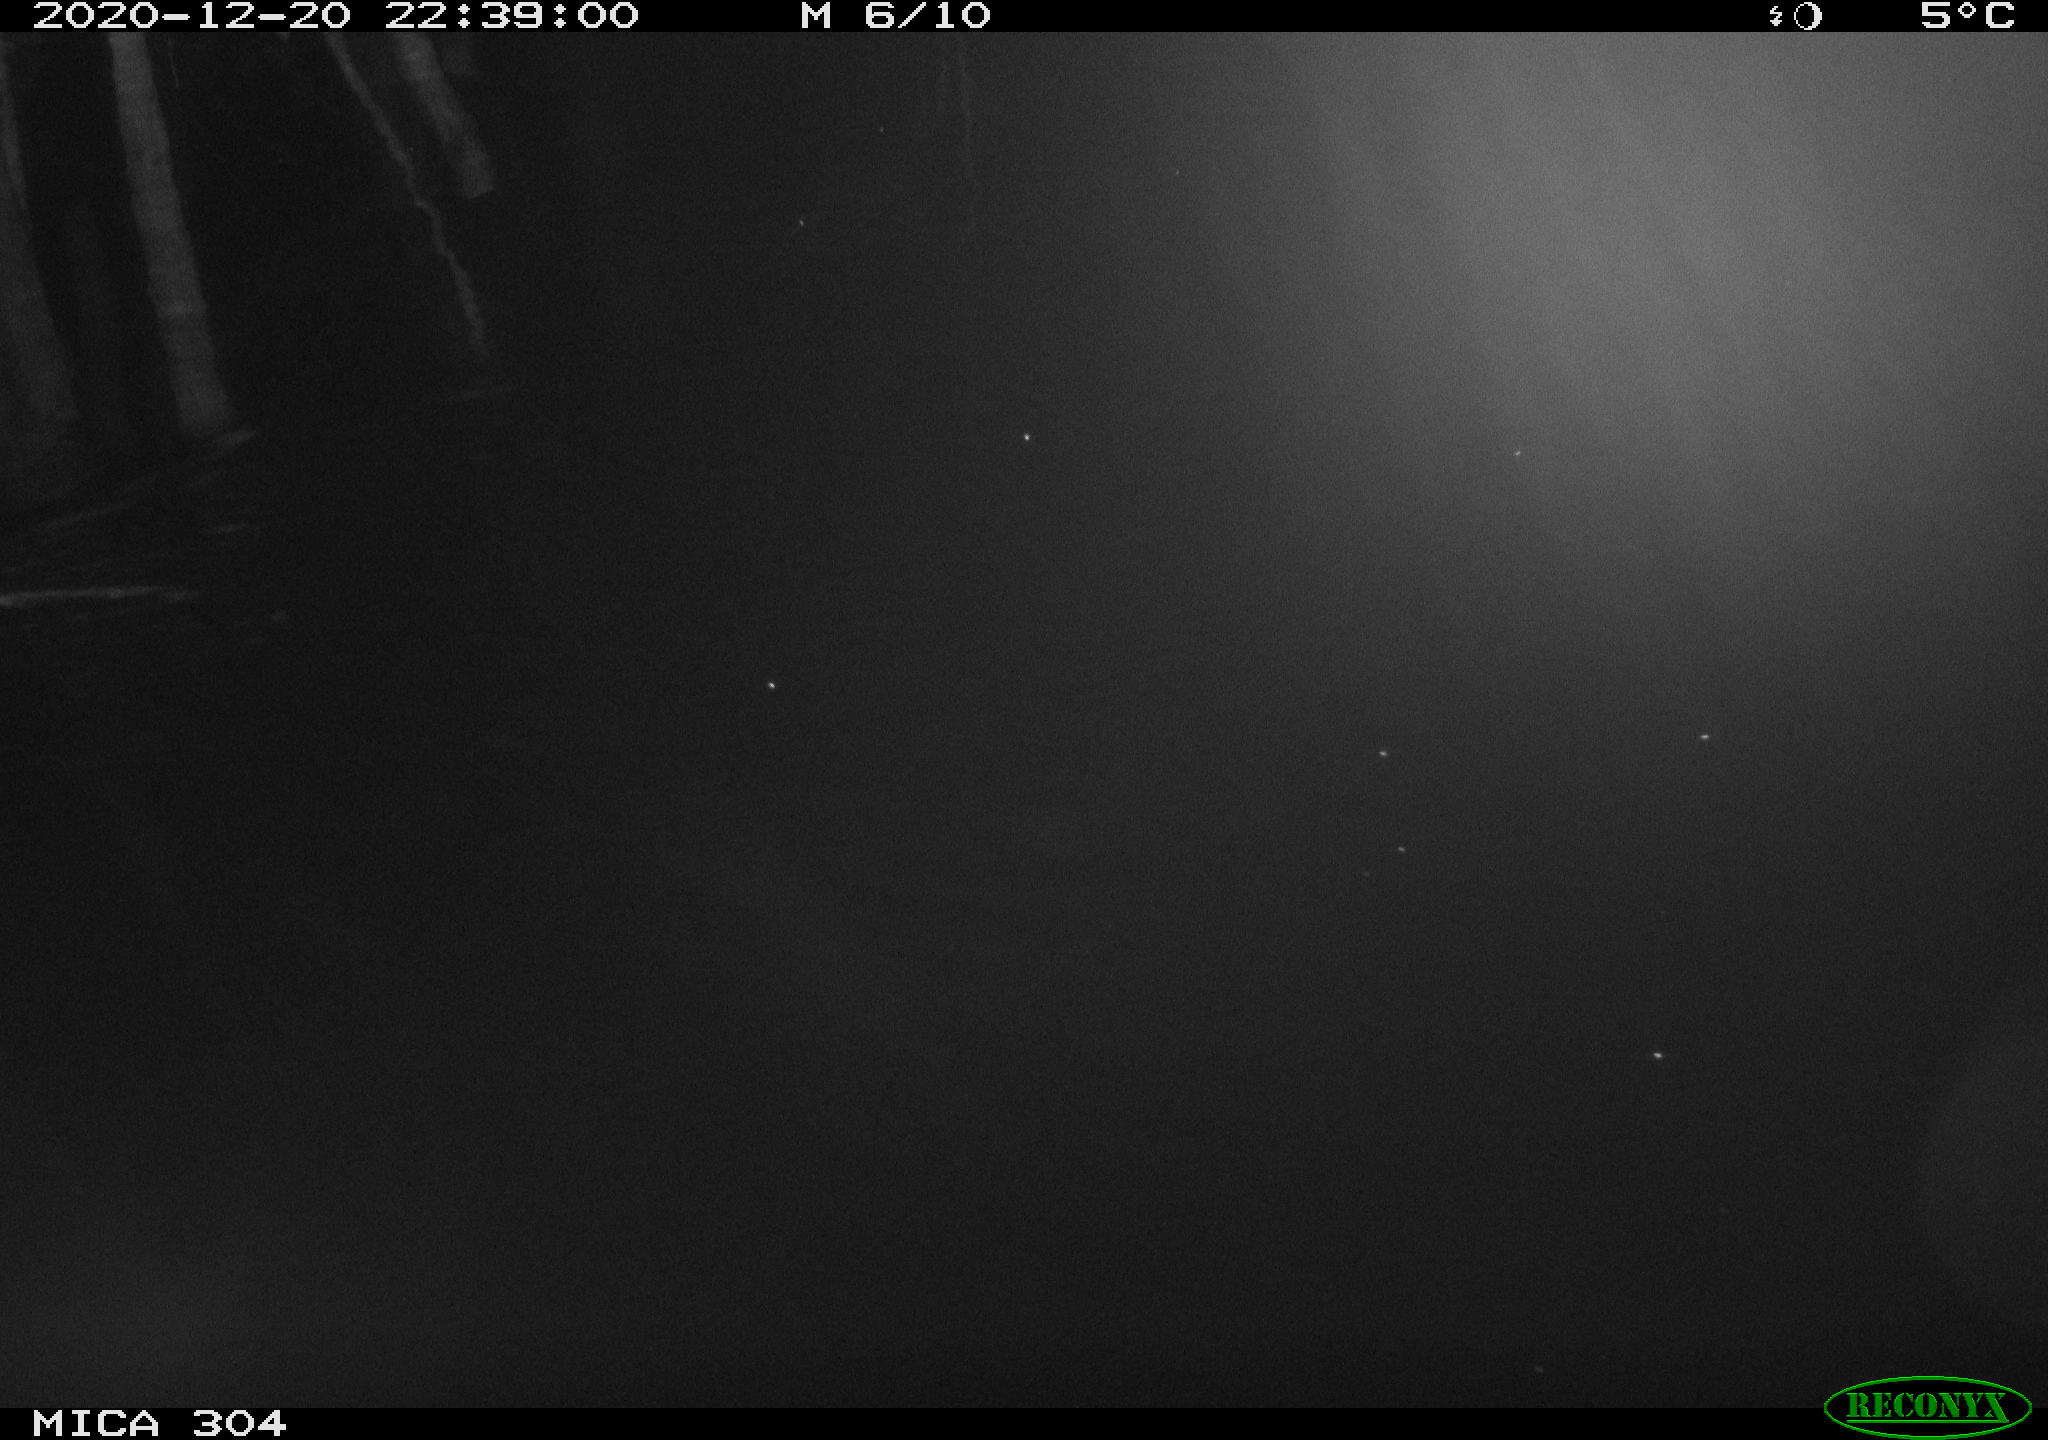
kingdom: Animalia
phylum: Chordata
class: Mammalia
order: Rodentia
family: Muridae
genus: Rattus
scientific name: Rattus norvegicus
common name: Brown rat
